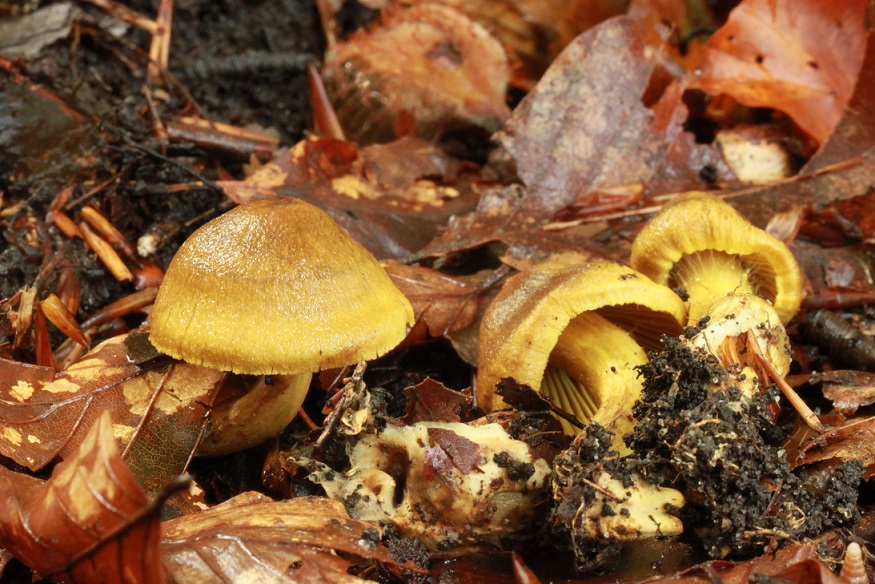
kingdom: Fungi
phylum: Basidiomycota
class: Agaricomycetes
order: Agaricales
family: Cortinariaceae
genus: Cortinarius
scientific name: Cortinarius olivaceofuscus
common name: olivenbrun slørhat
